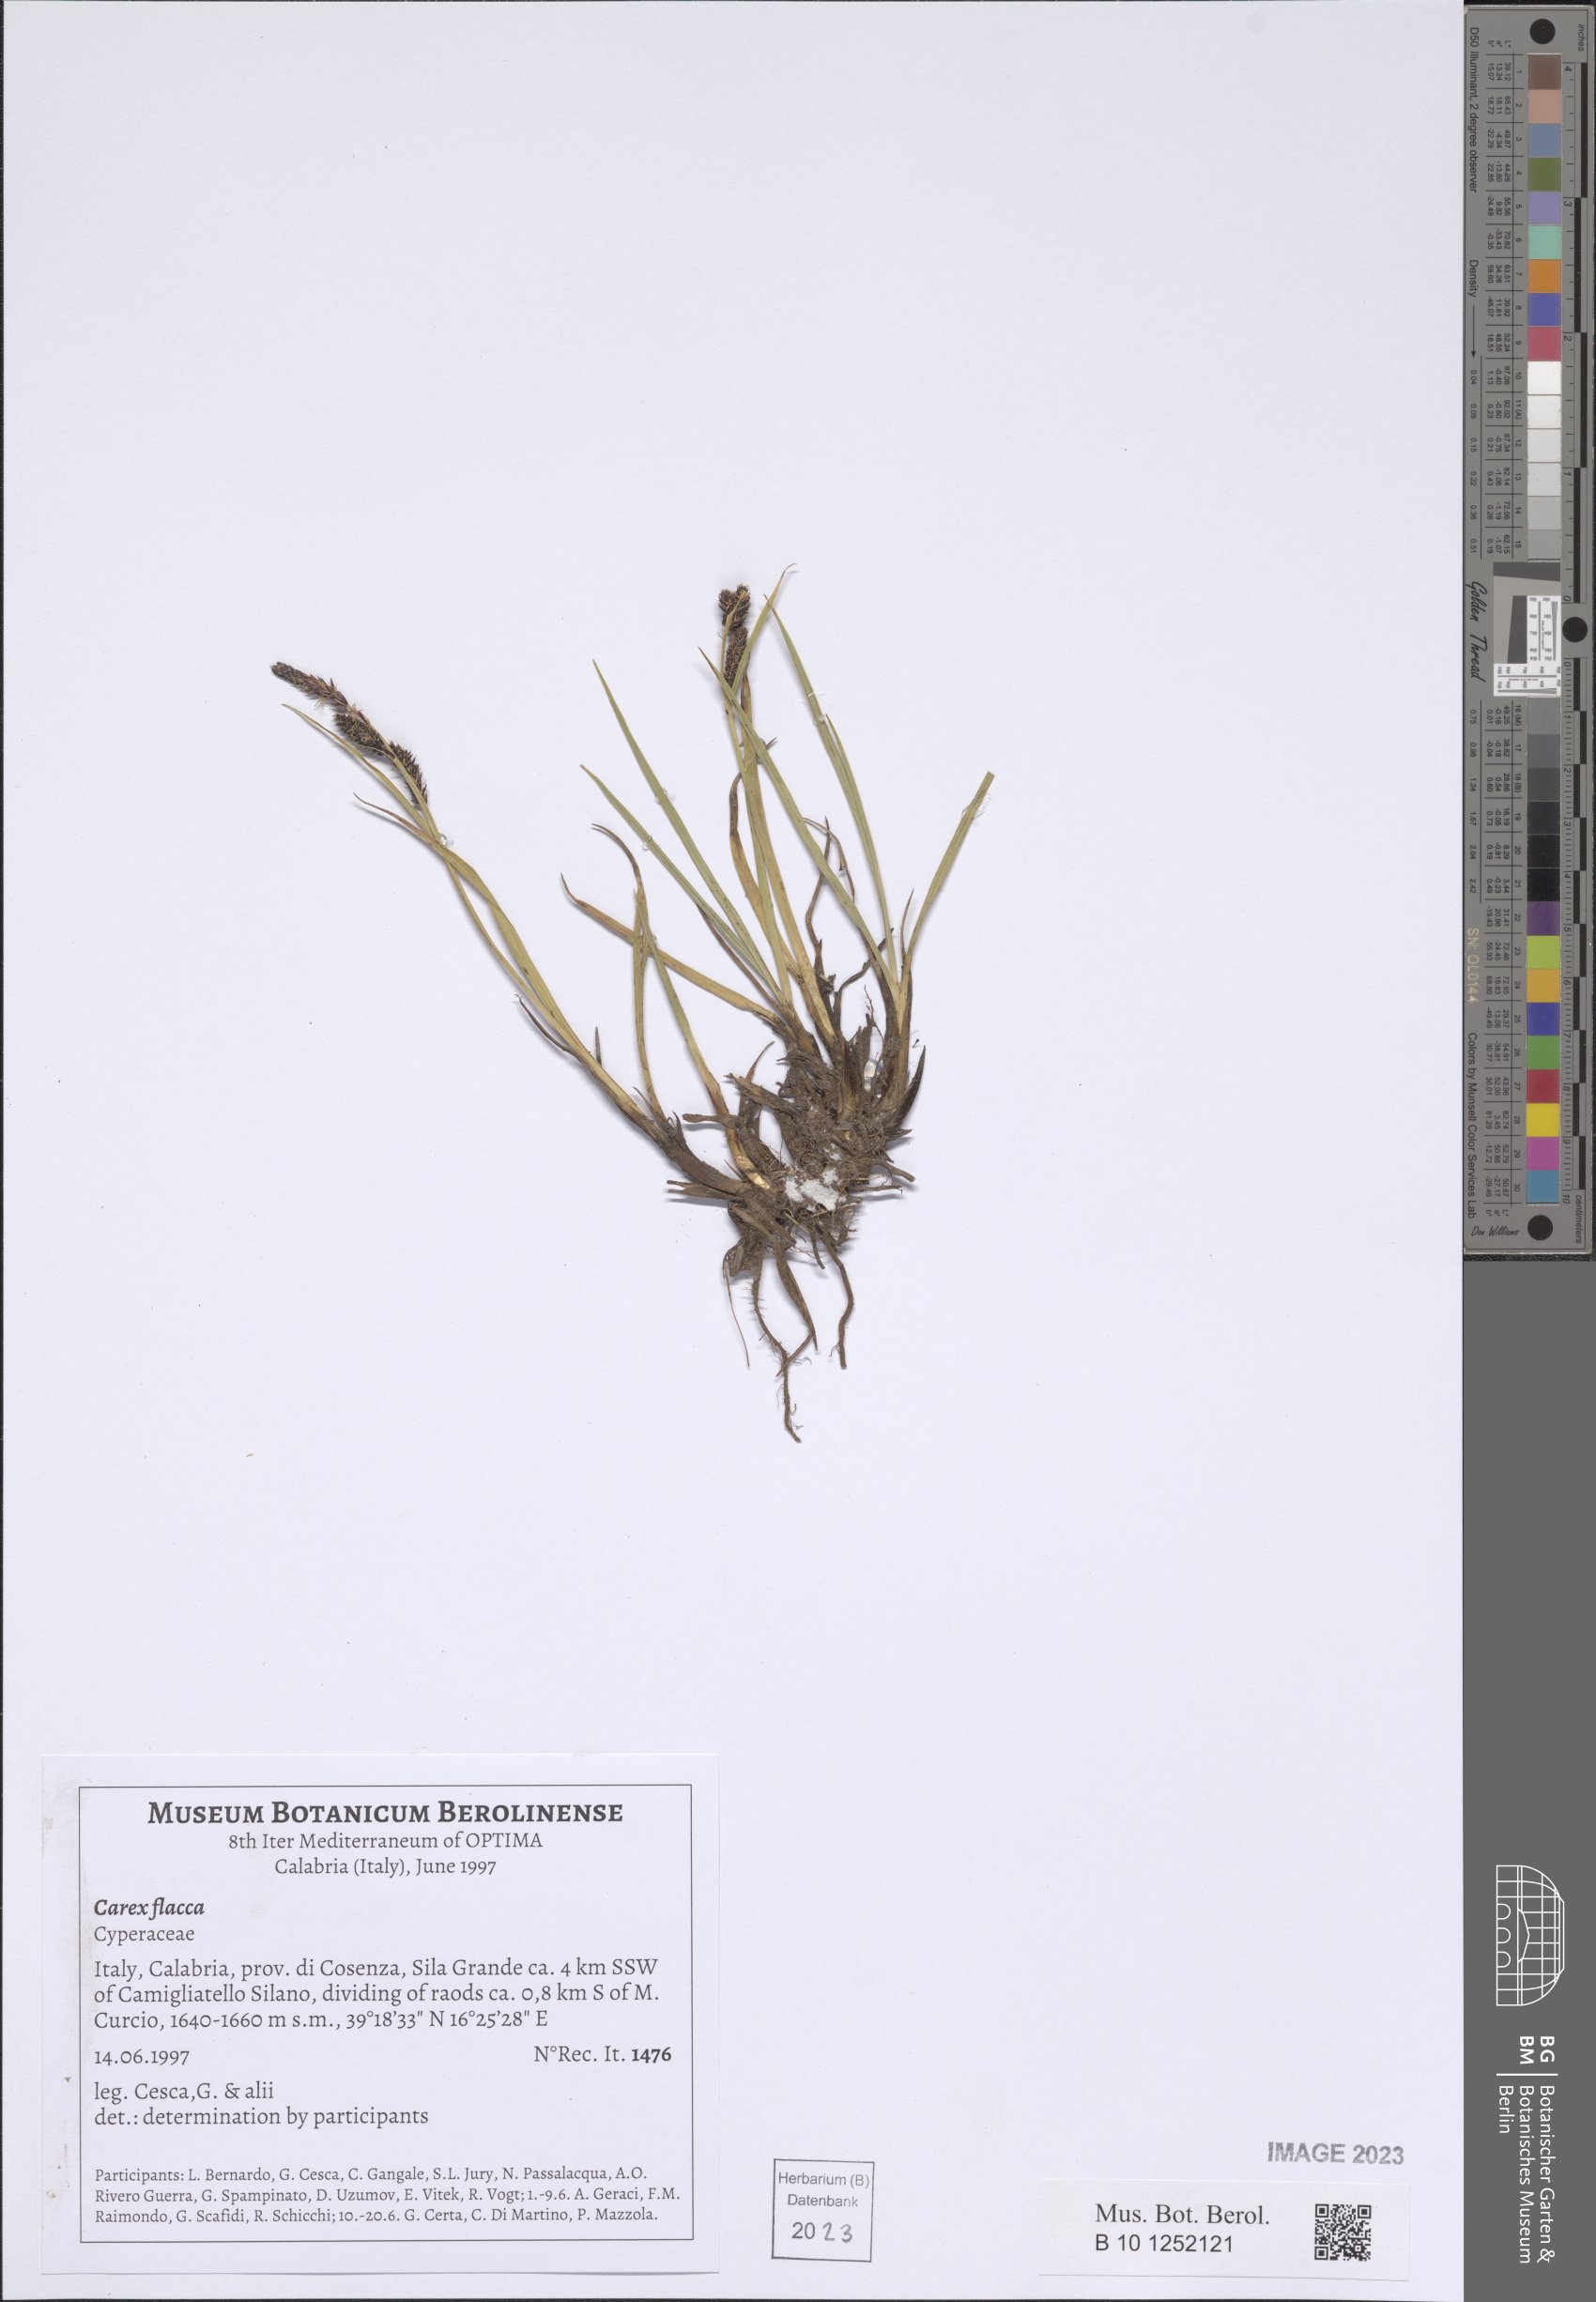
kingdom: Plantae
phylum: Tracheophyta
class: Liliopsida
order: Poales
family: Cyperaceae
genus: Carex
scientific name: Carex flacca
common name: Glaucous sedge
